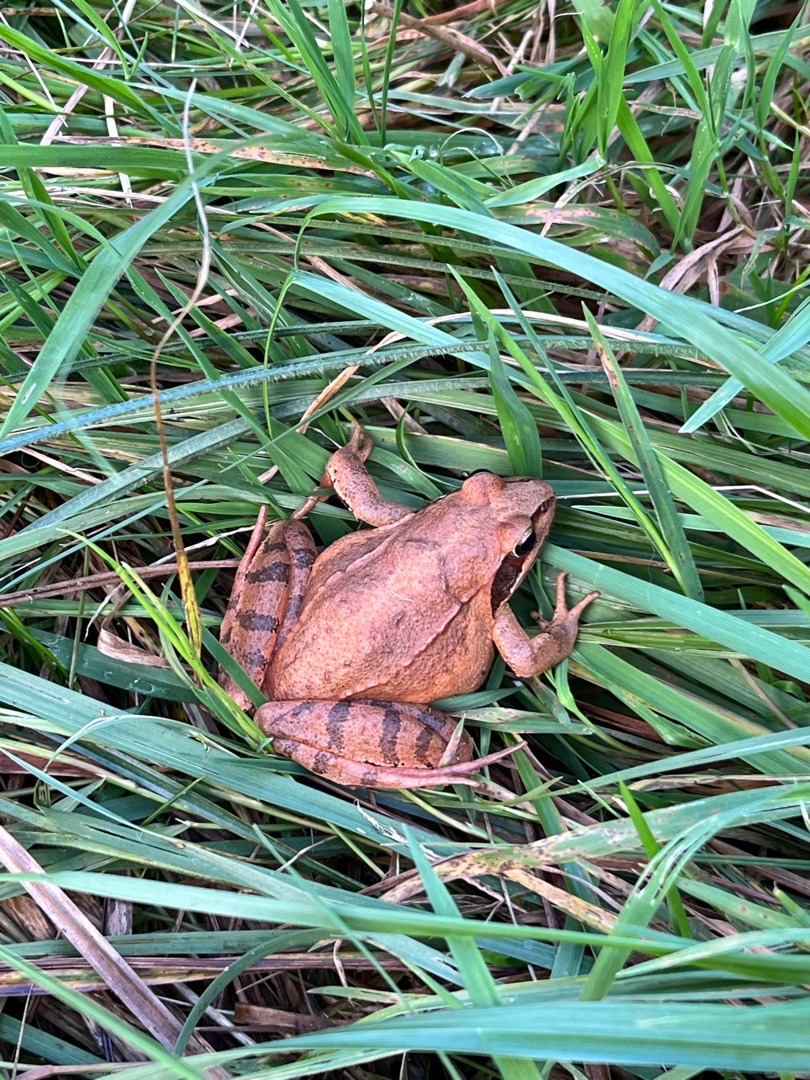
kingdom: Animalia
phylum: Chordata
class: Amphibia
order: Anura
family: Ranidae
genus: Rana
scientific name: Rana dalmatina
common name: Springfrø
